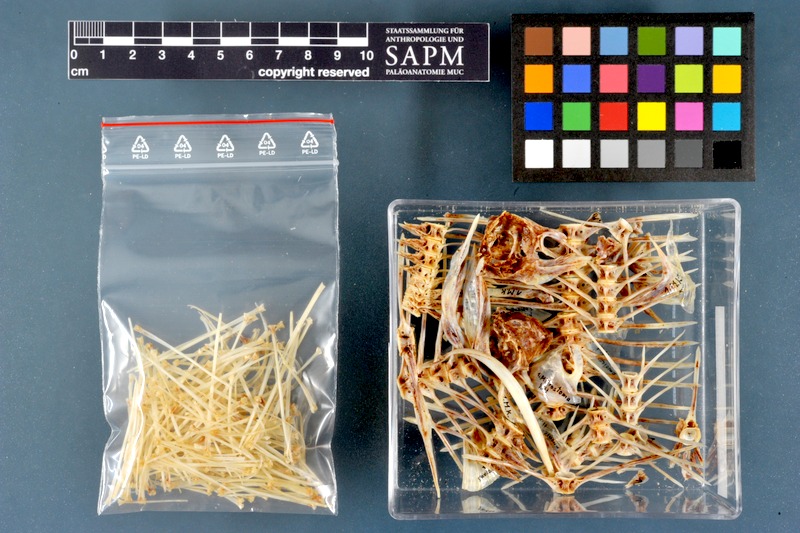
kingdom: Animalia
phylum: Chordata
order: Pleuronectiformes
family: Pleuronectidae
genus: Microstomus
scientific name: Microstomus kitt
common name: Lemon sole
